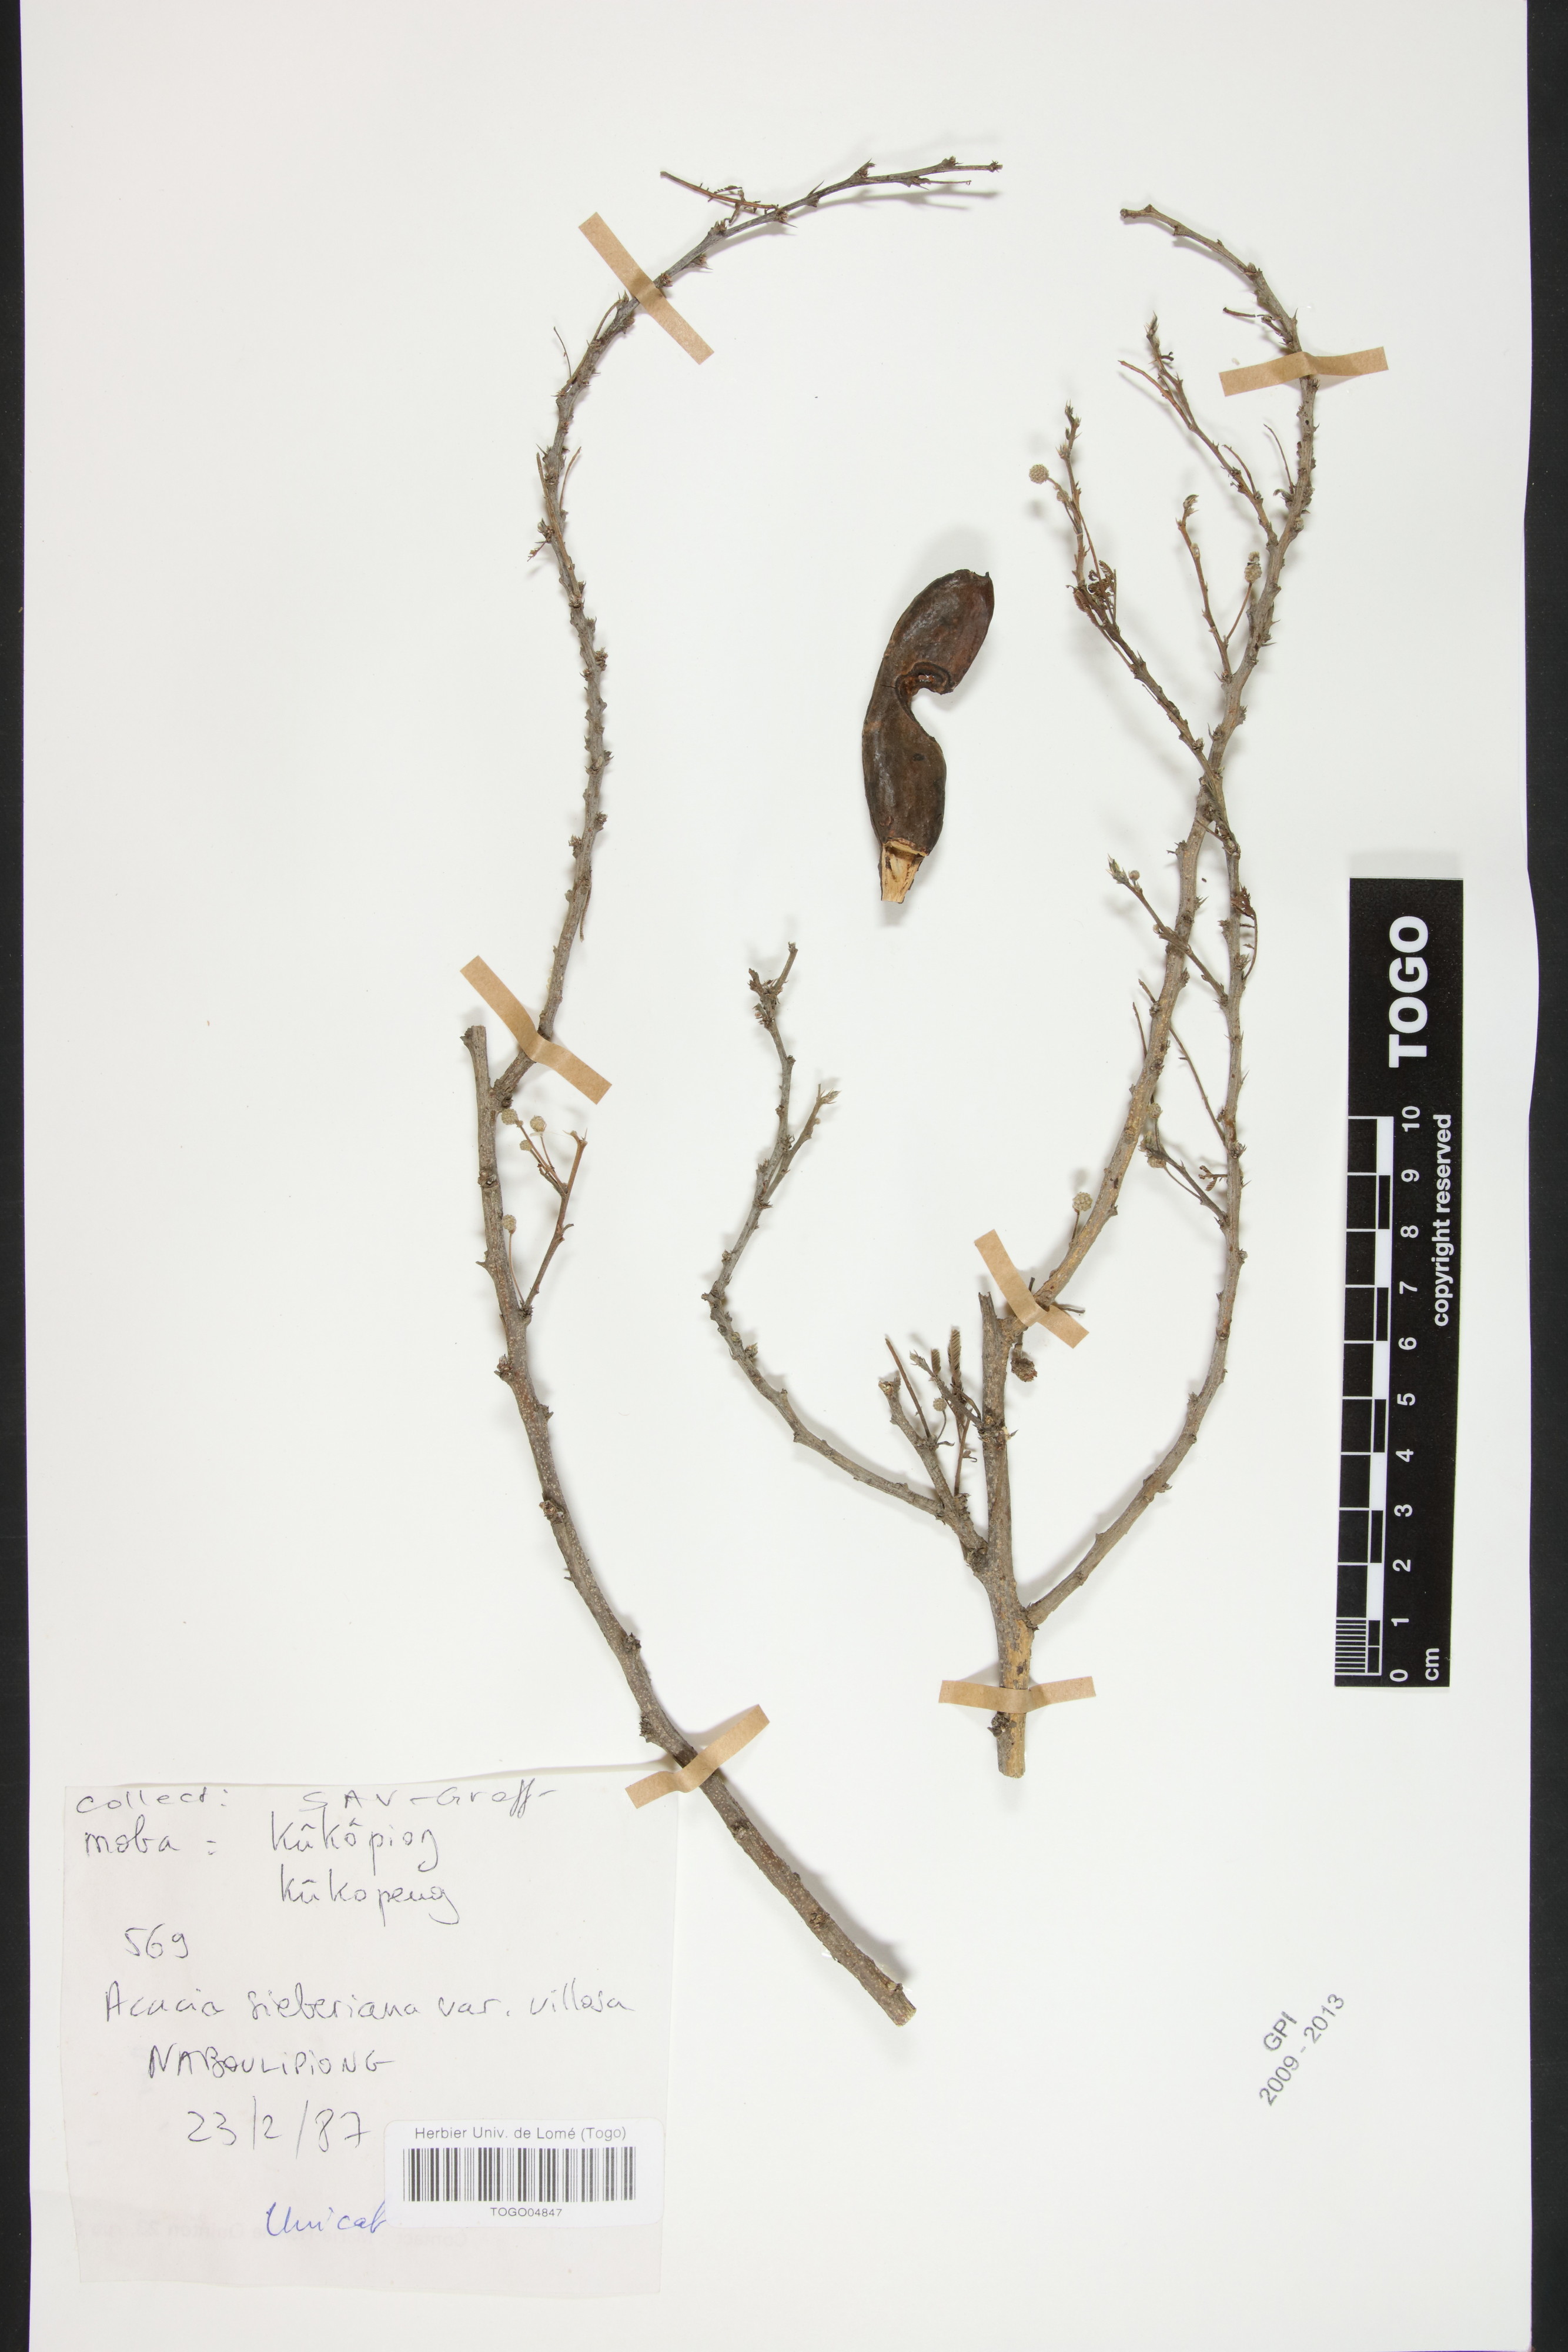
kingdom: Plantae
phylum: Tracheophyta
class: Magnoliopsida
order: Fabales
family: Fabaceae
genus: Vachellia
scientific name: Vachellia sieberiana
